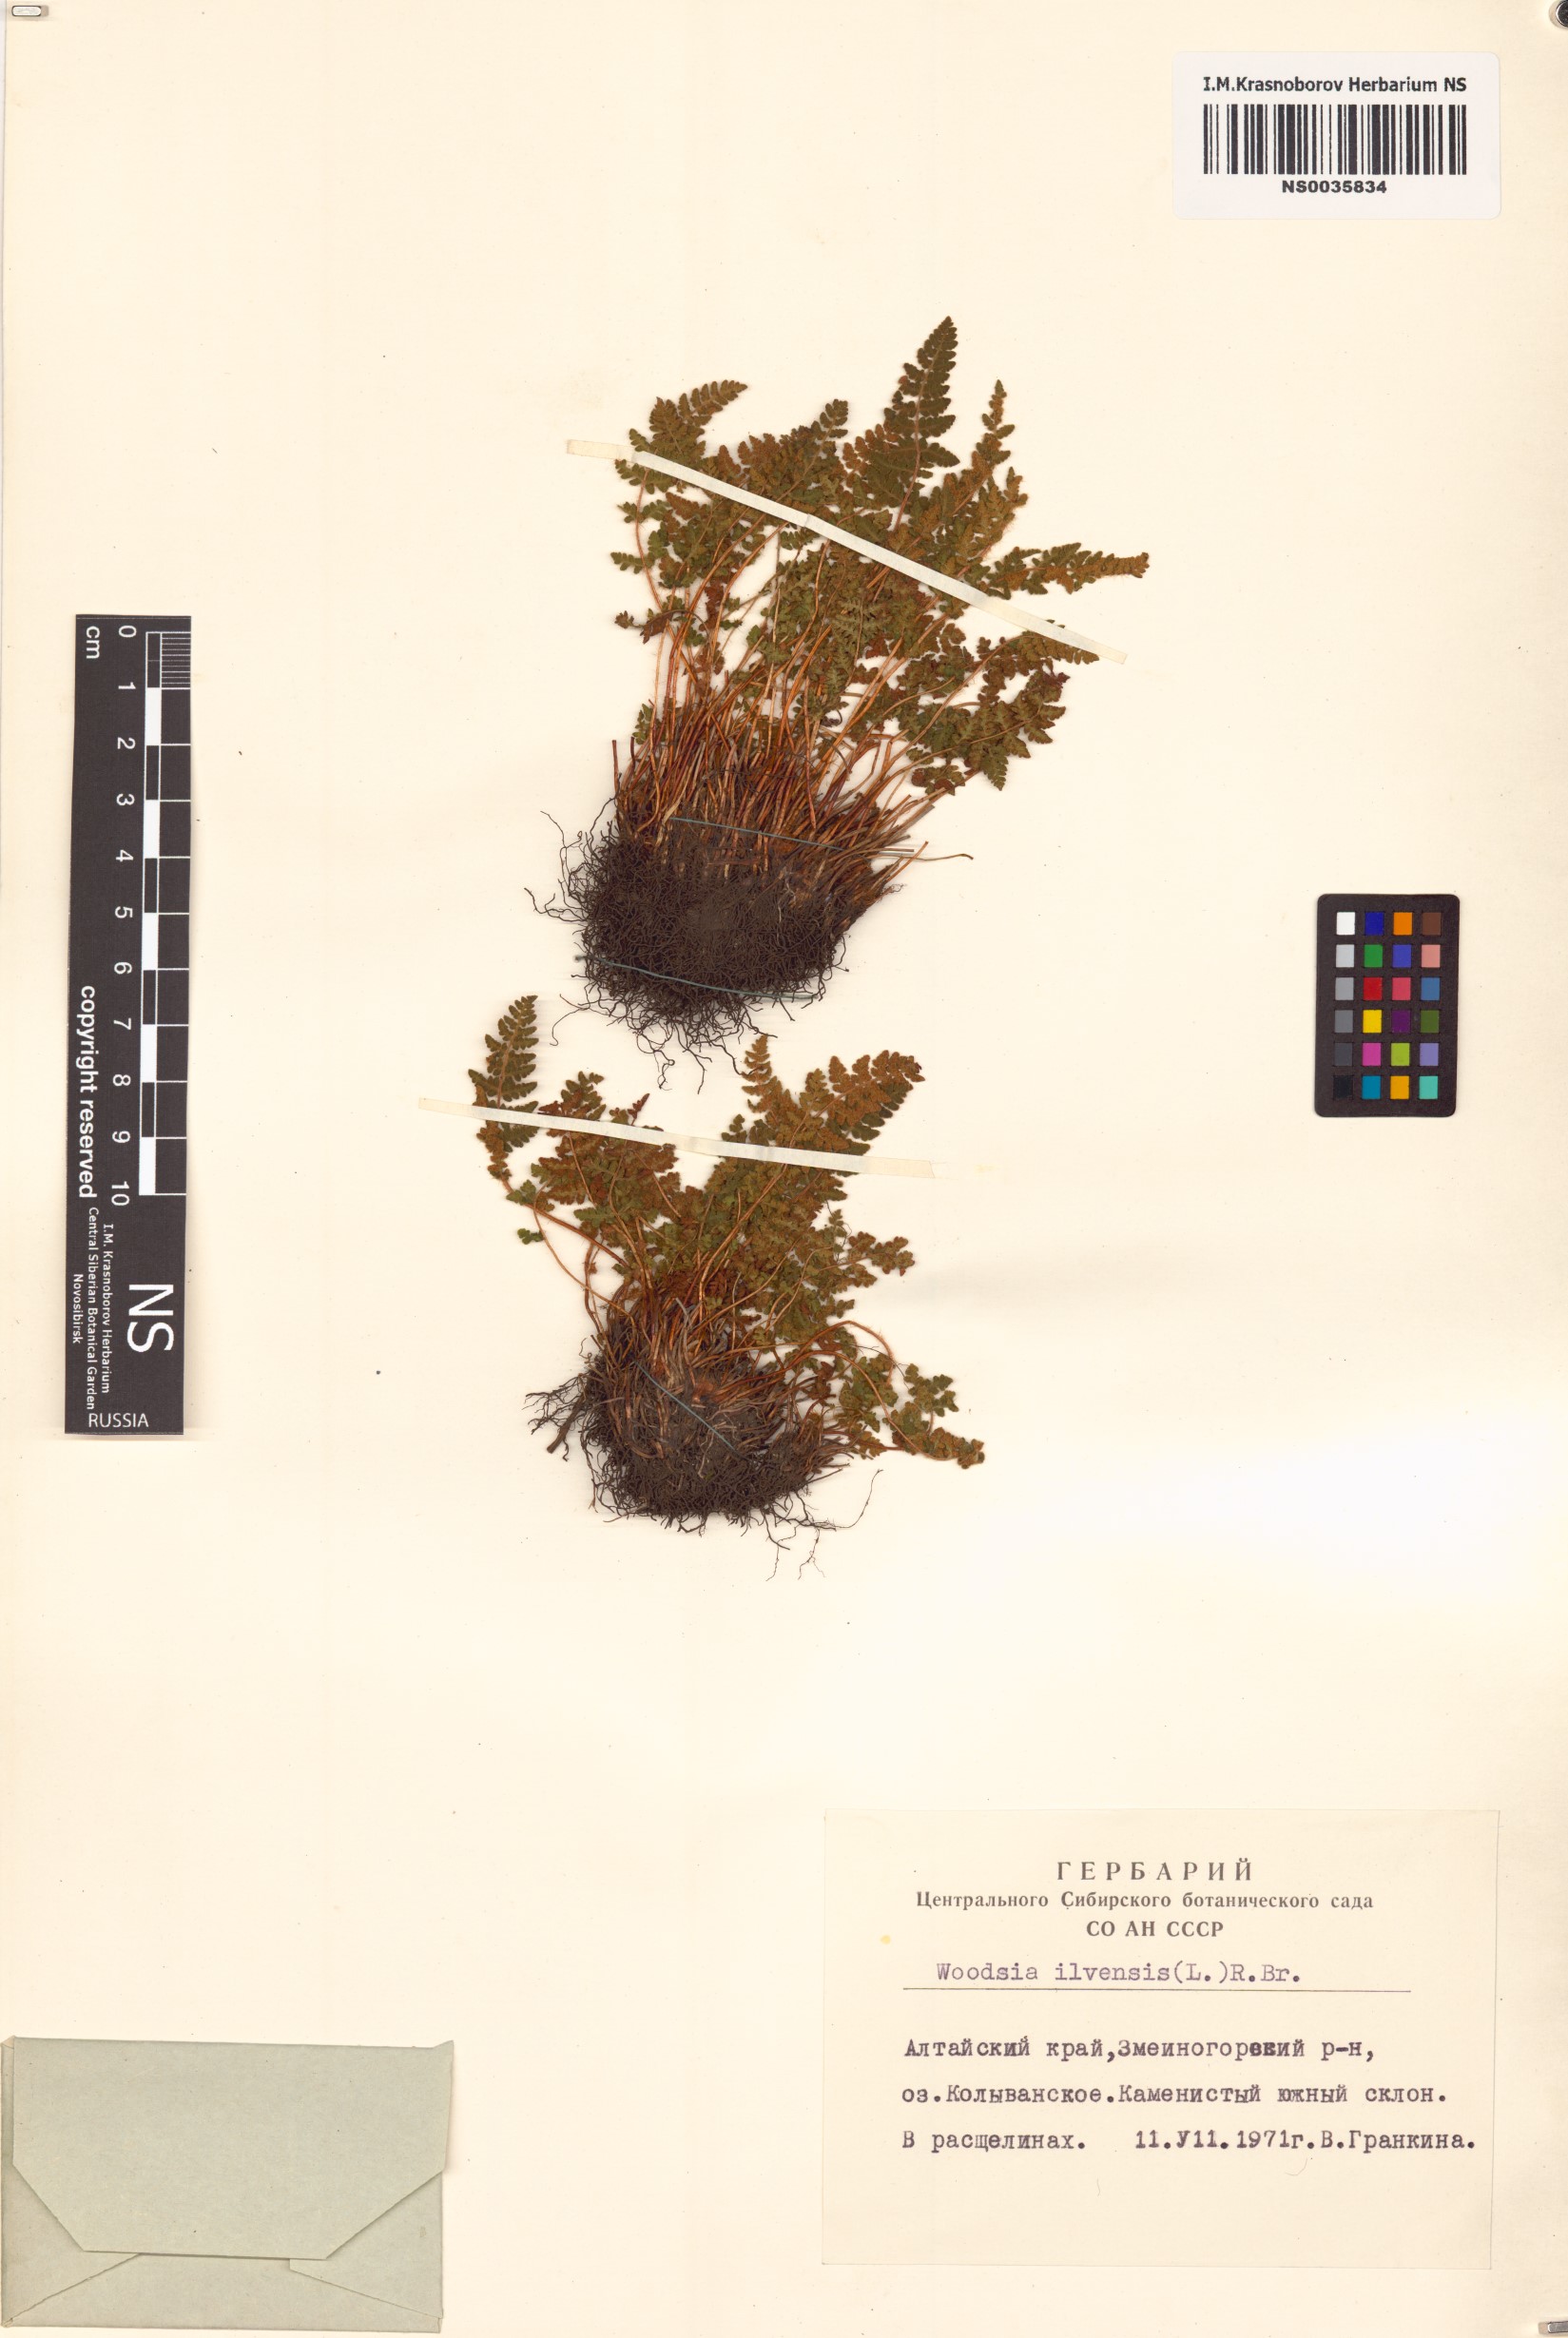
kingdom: Plantae
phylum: Tracheophyta
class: Polypodiopsida
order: Polypodiales
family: Woodsiaceae
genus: Woodsia
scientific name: Woodsia ilvensis
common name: Fragrant woodsia
